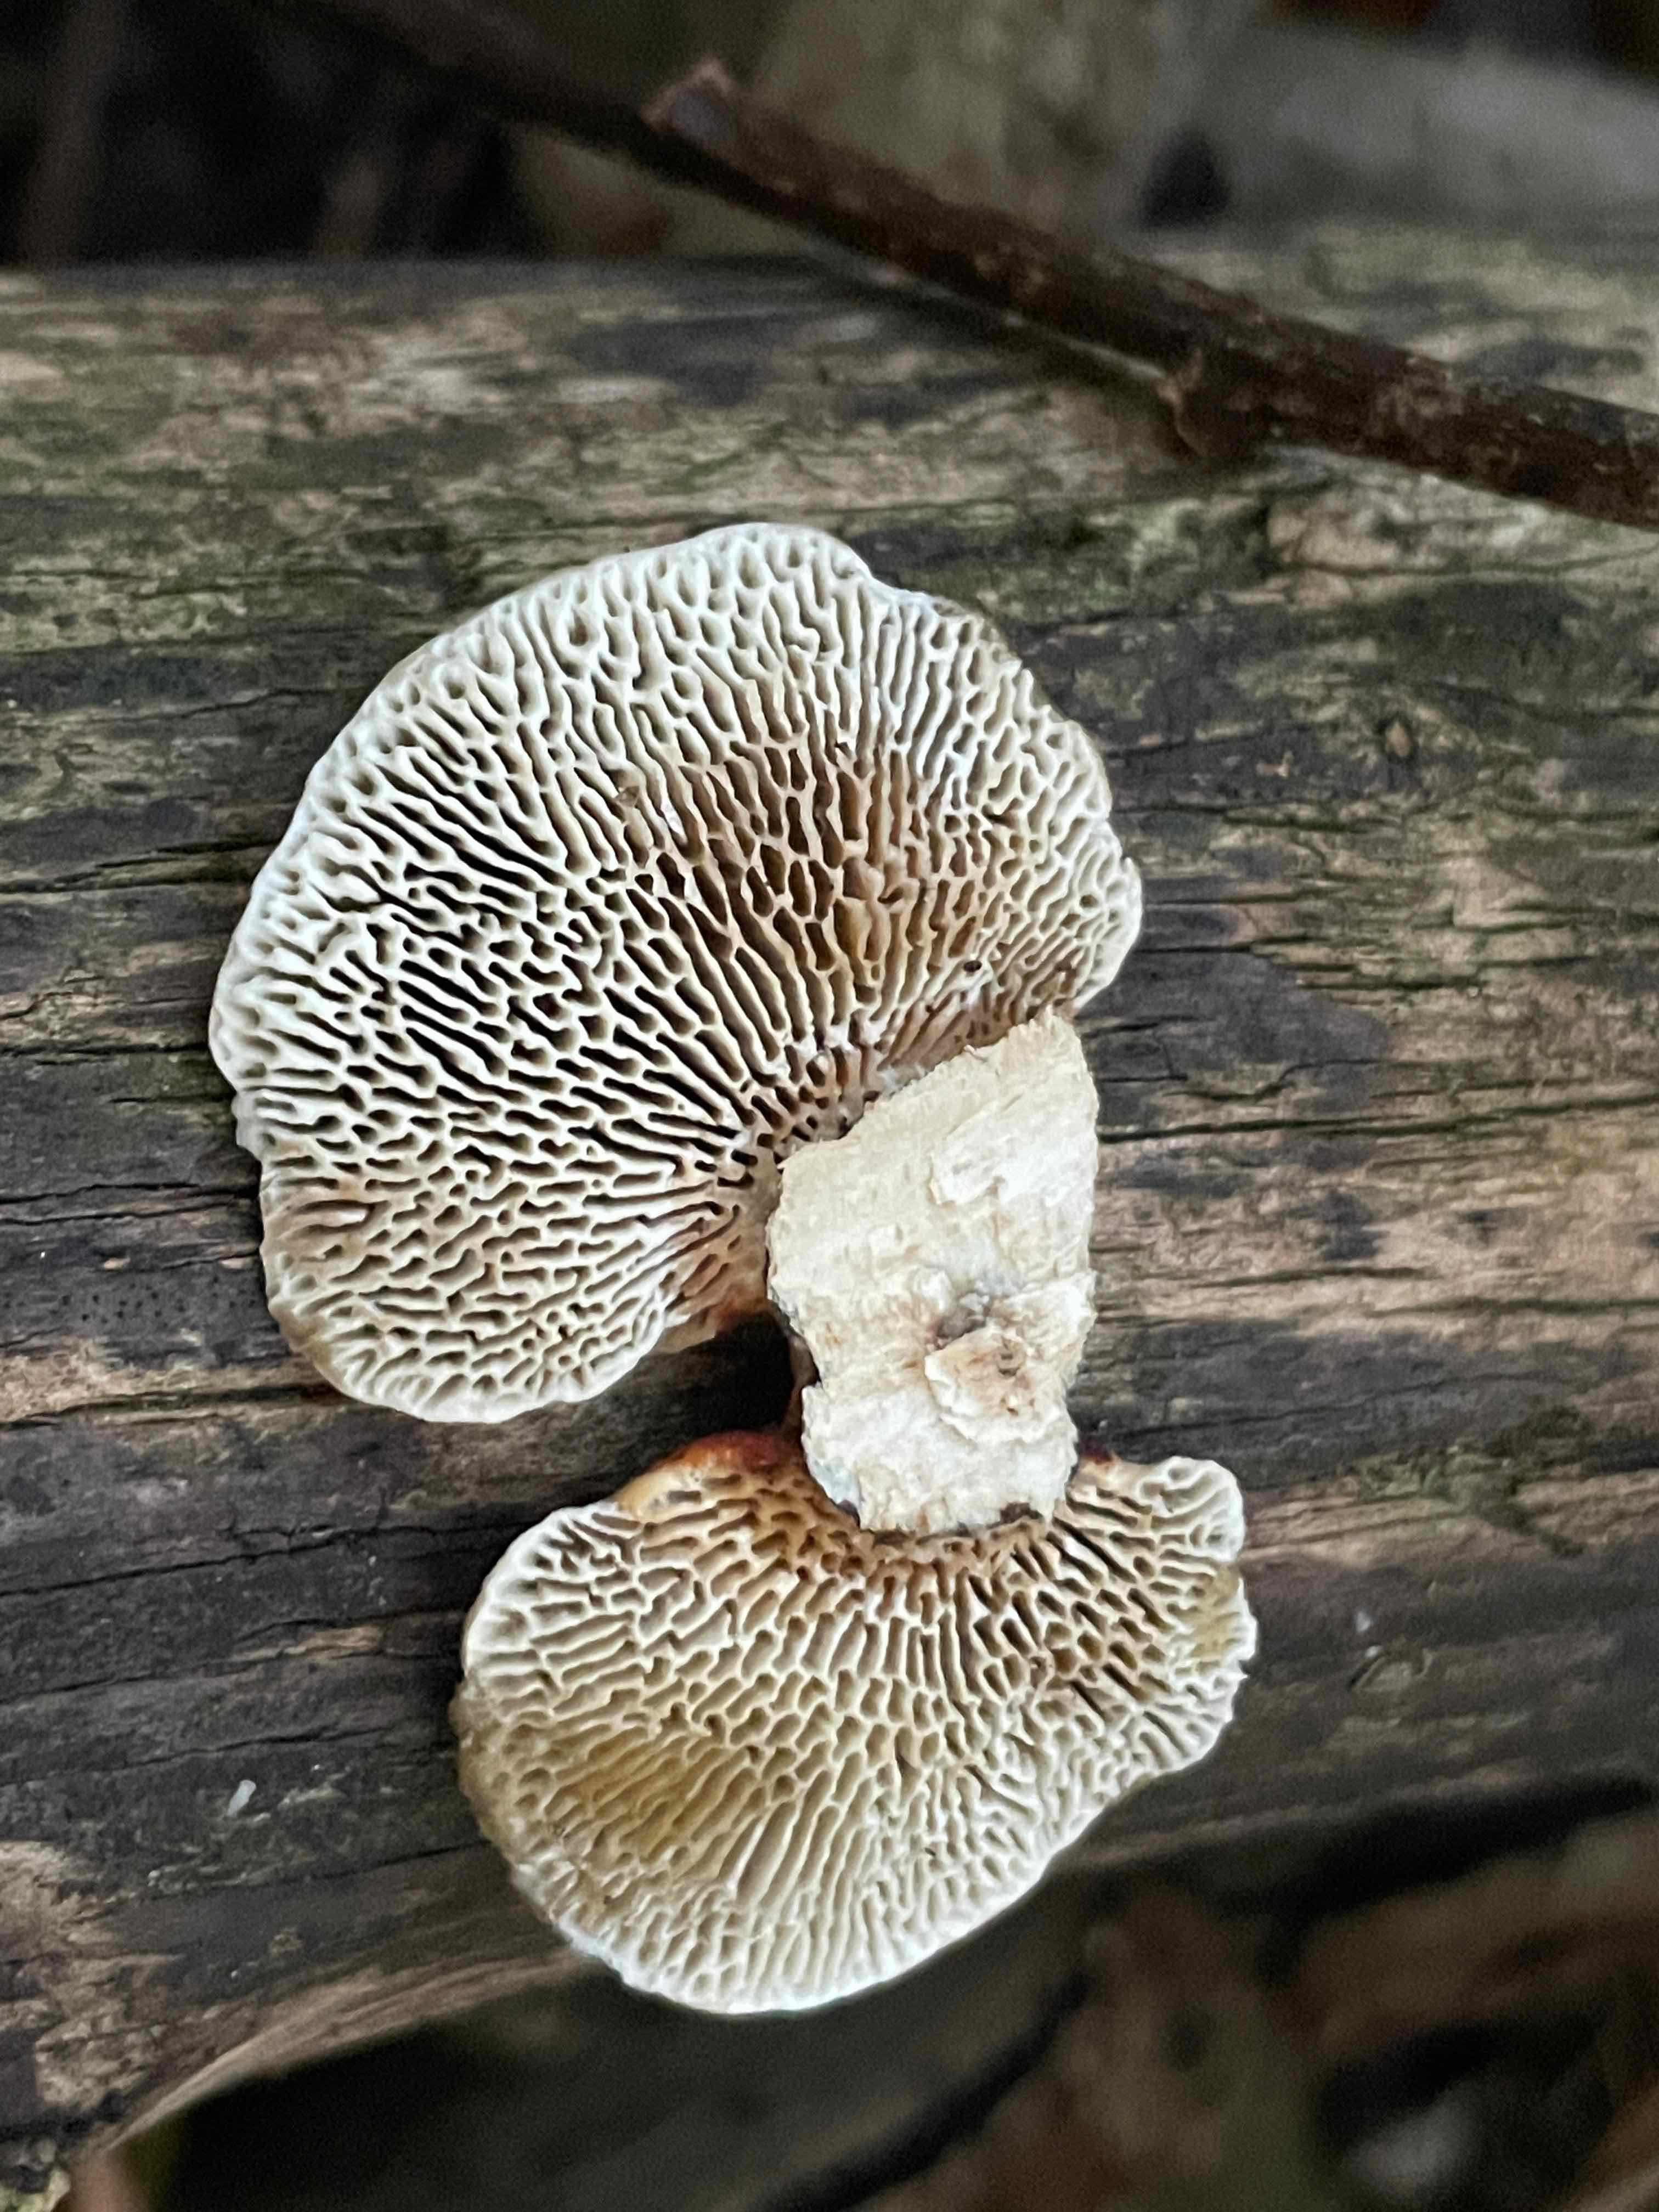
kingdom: Fungi
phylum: Basidiomycota
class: Agaricomycetes
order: Polyporales
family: Polyporaceae
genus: Daedaleopsis
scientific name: Daedaleopsis confragosa
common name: rødmende læderporesvamp
